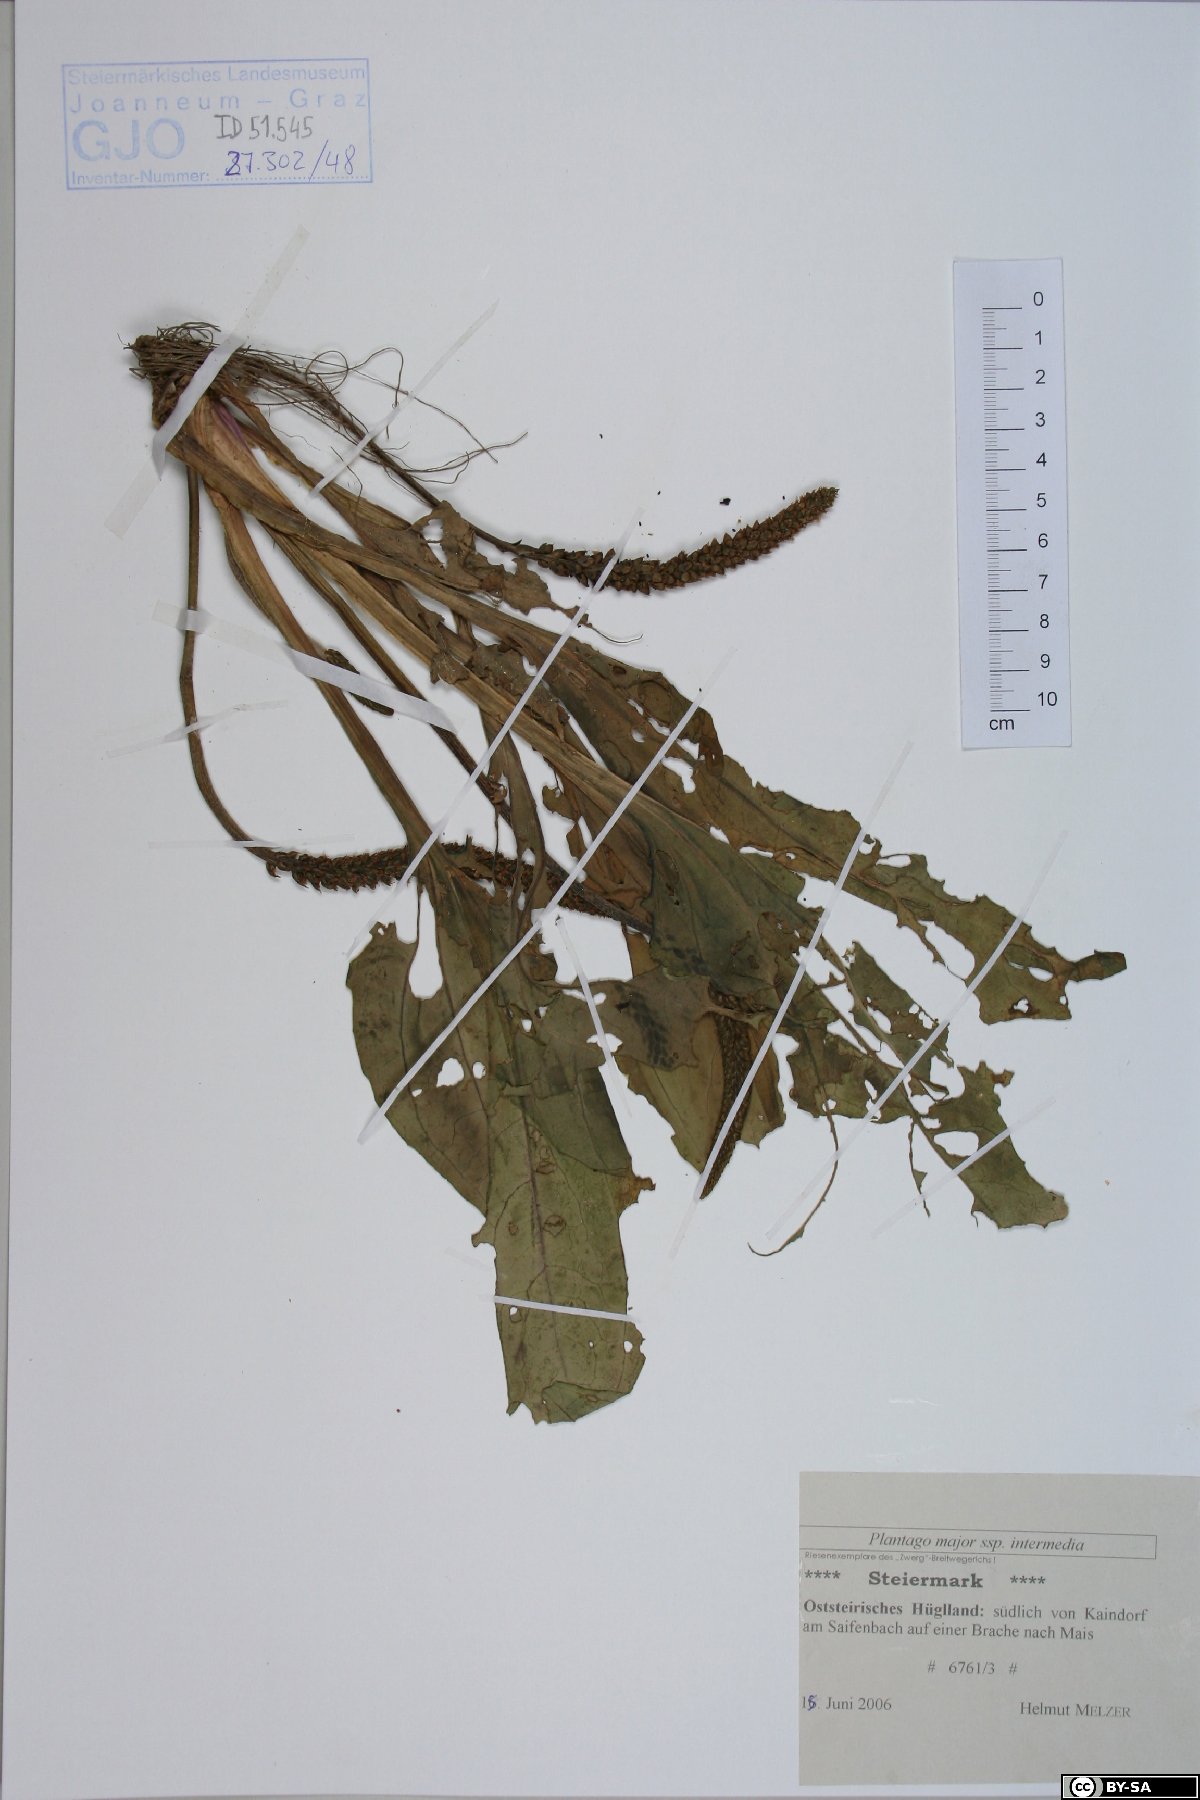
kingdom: Plantae
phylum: Tracheophyta
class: Magnoliopsida
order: Lamiales
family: Plantaginaceae
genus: Plantago
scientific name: Plantago uliginosa
